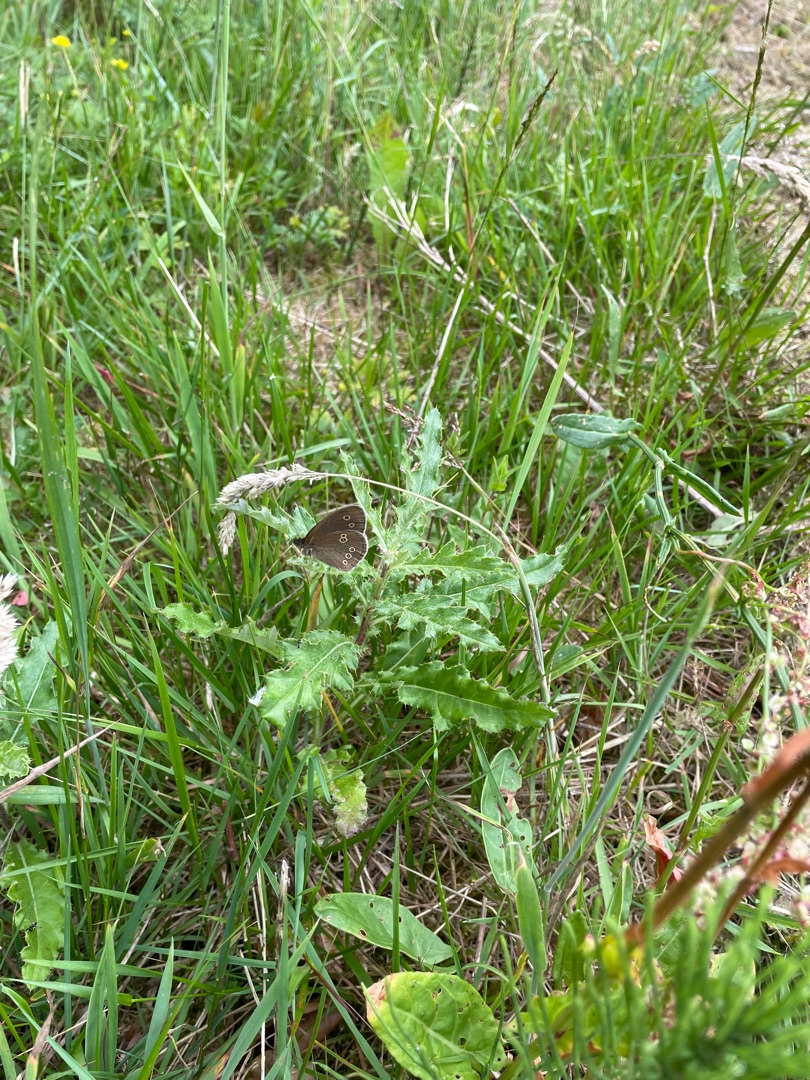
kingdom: Animalia
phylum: Arthropoda
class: Insecta
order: Lepidoptera
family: Nymphalidae
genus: Aphantopus
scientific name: Aphantopus hyperantus
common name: Engrandøje
